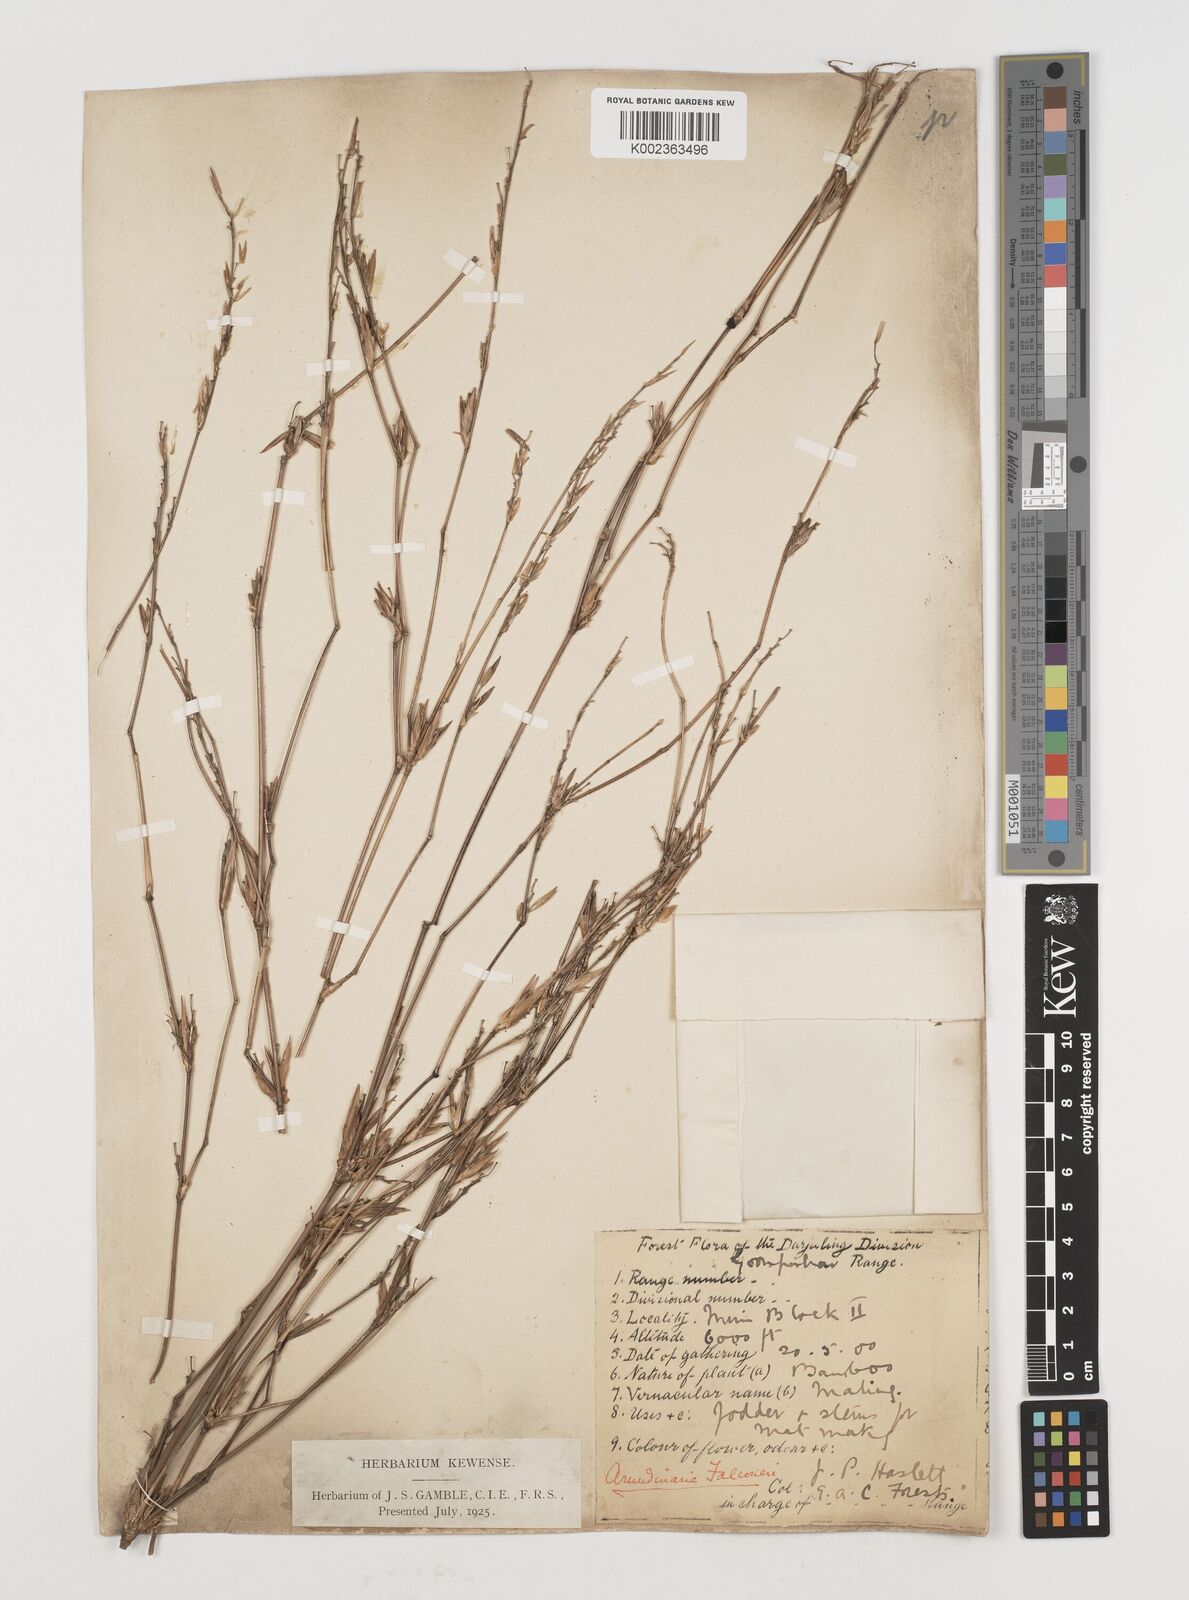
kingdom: Plantae
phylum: Tracheophyta
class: Liliopsida
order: Poales
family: Poaceae
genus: Himalayacalamus
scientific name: Himalayacalamus falconeri
